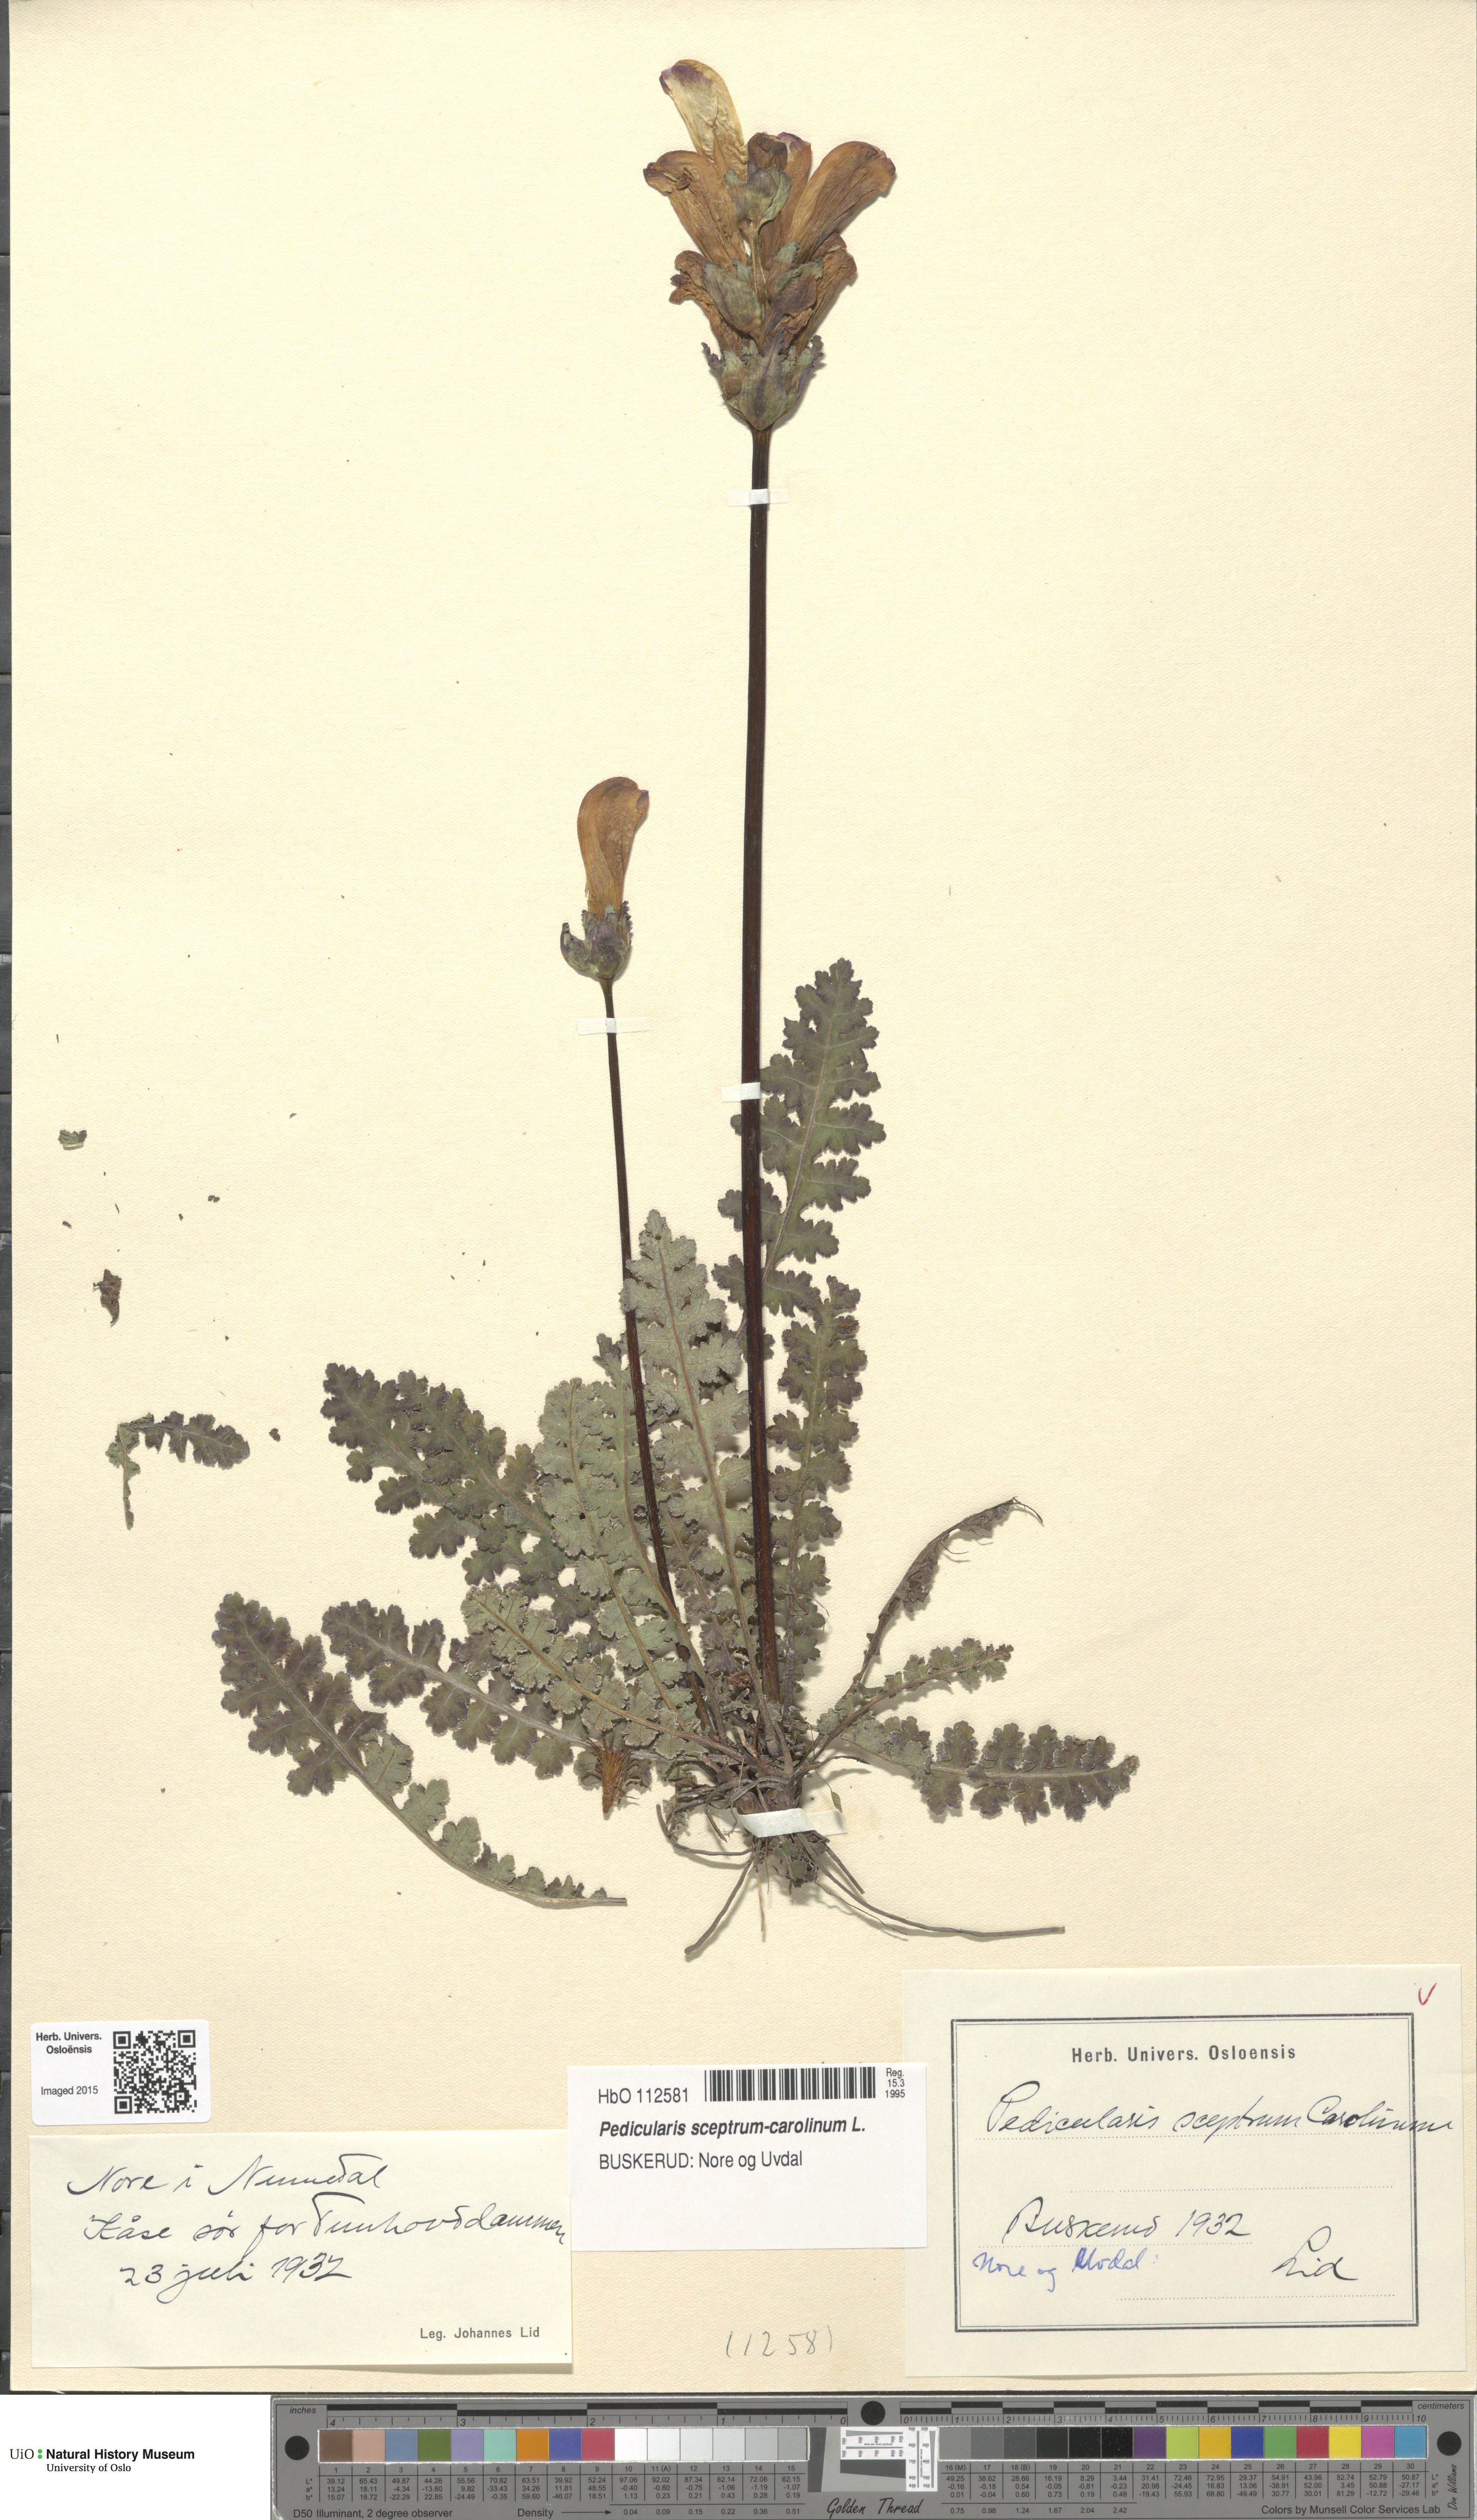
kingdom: Plantae
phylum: Tracheophyta
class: Magnoliopsida
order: Lamiales
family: Orobanchaceae
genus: Pedicularis
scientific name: Pedicularis sceptrum-carolinum
